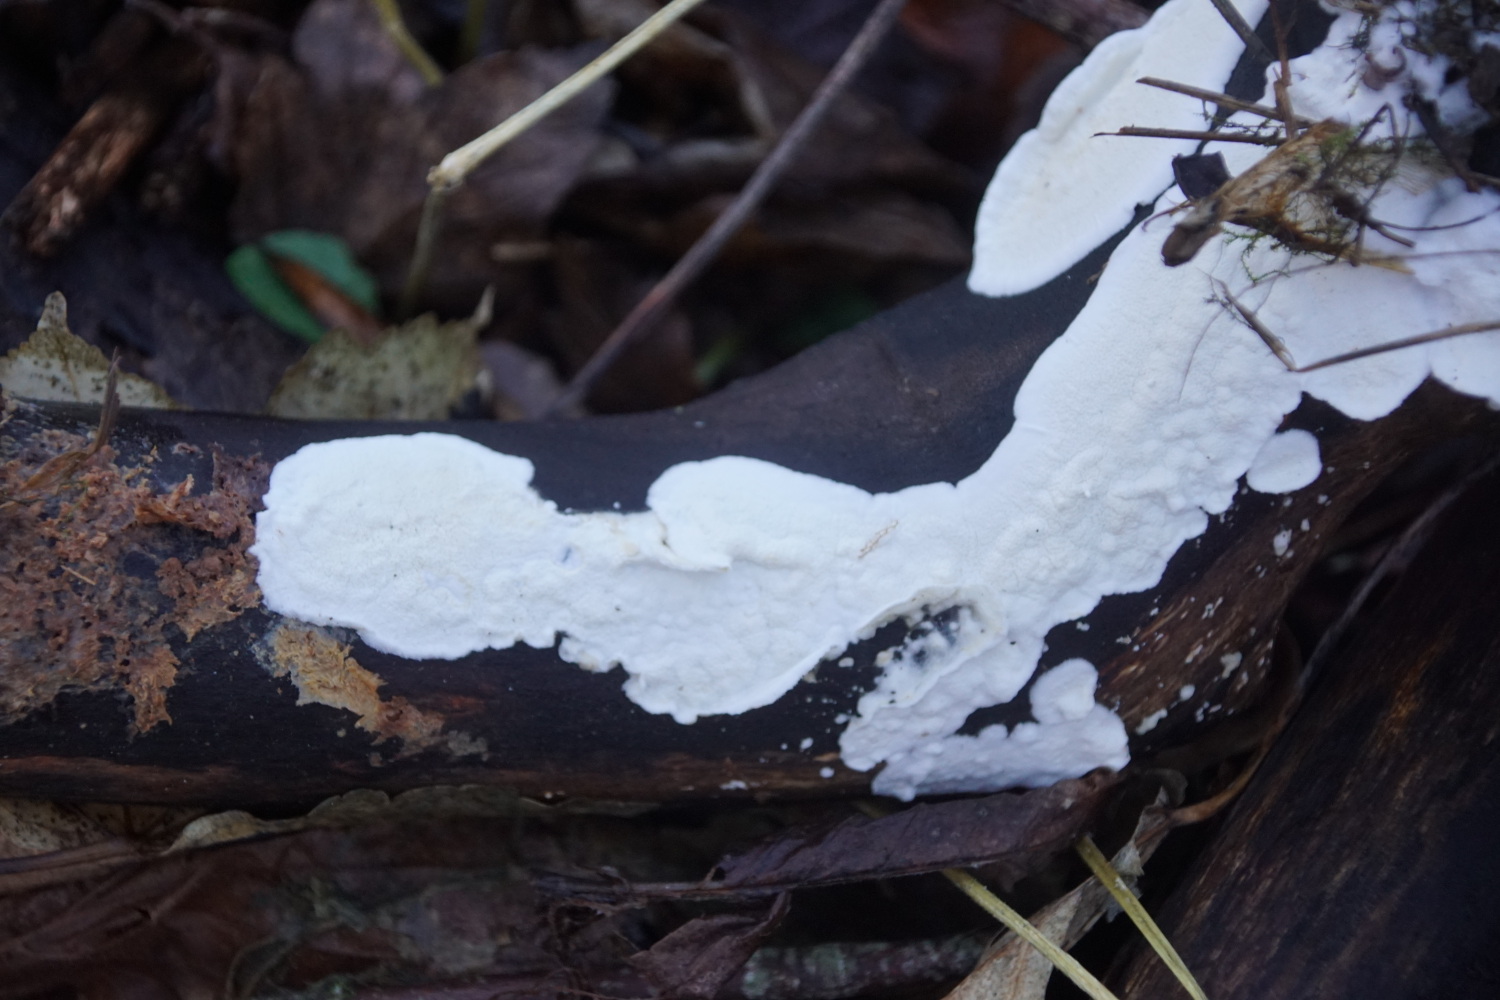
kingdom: Fungi
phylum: Basidiomycota
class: Agaricomycetes
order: Polyporales
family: Irpicaceae
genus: Byssomerulius
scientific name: Byssomerulius corium
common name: læder-åresvamp
